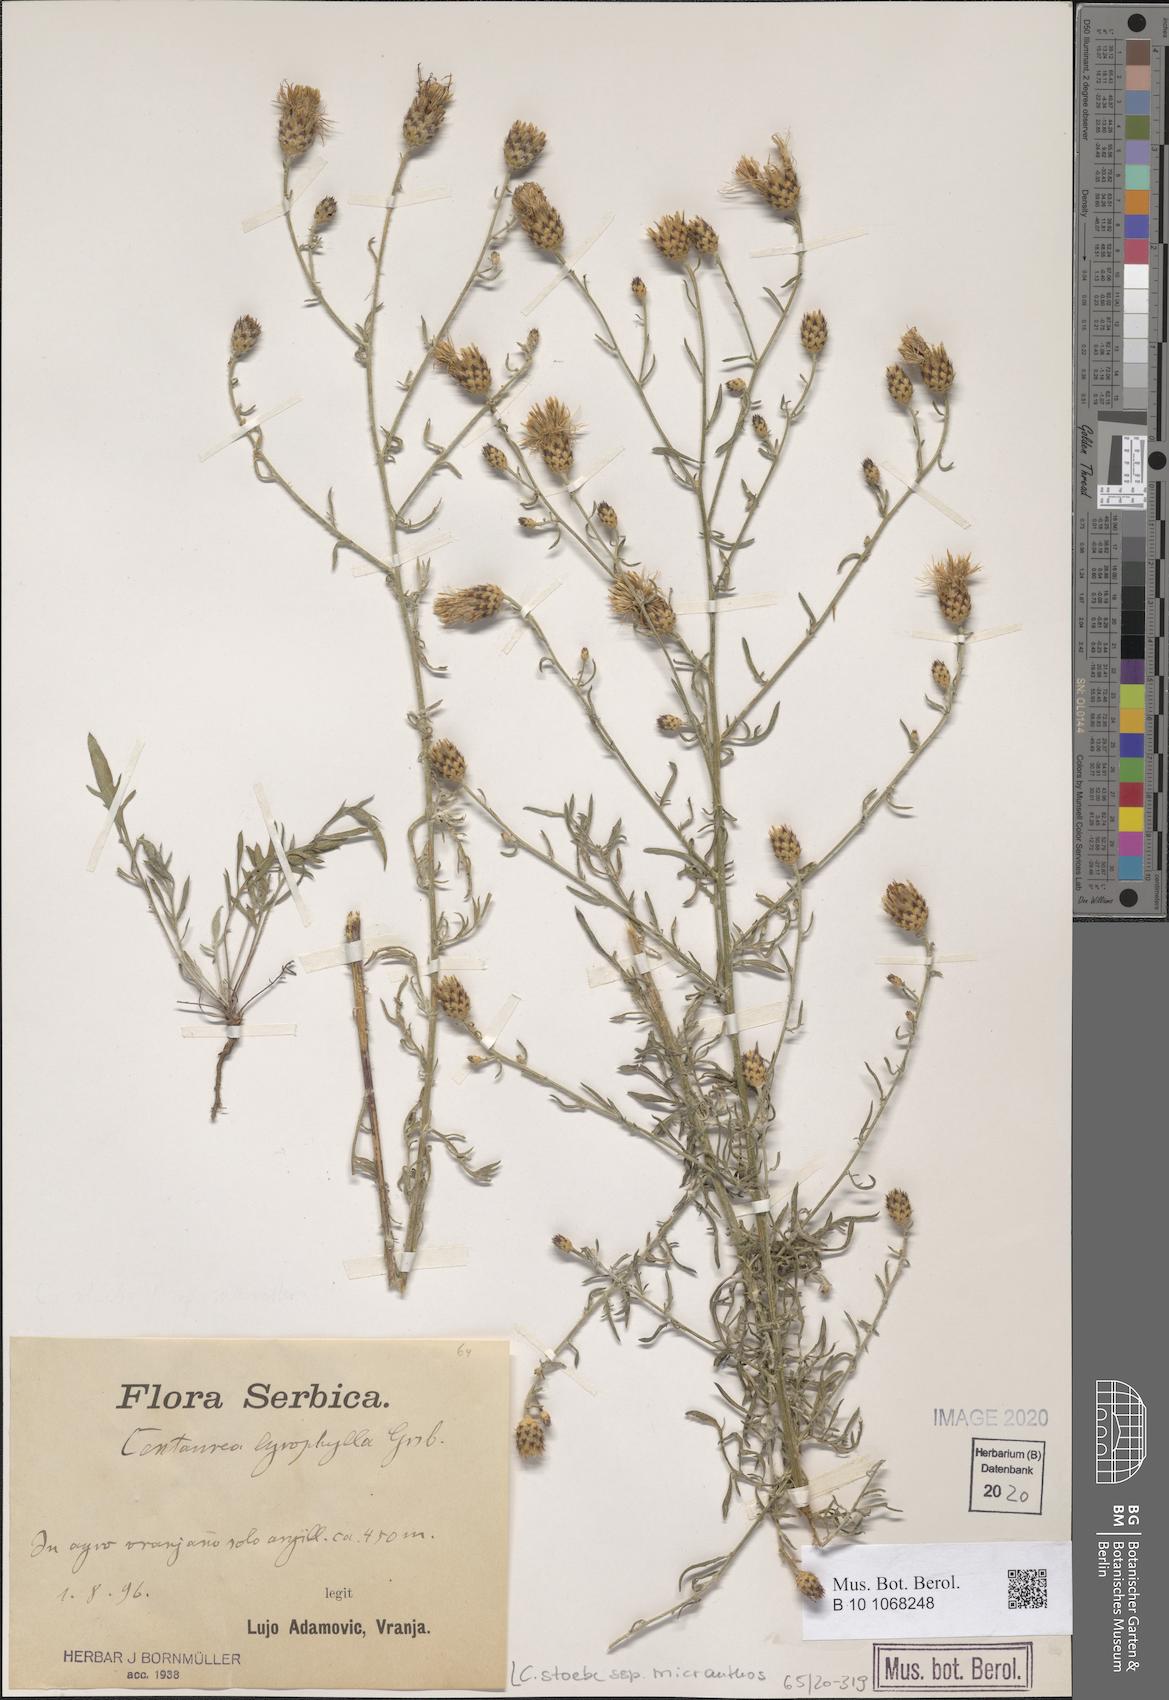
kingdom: Plantae
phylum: Tracheophyta
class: Magnoliopsida
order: Asterales
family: Asteraceae
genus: Centaurea
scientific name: Centaurea australis
